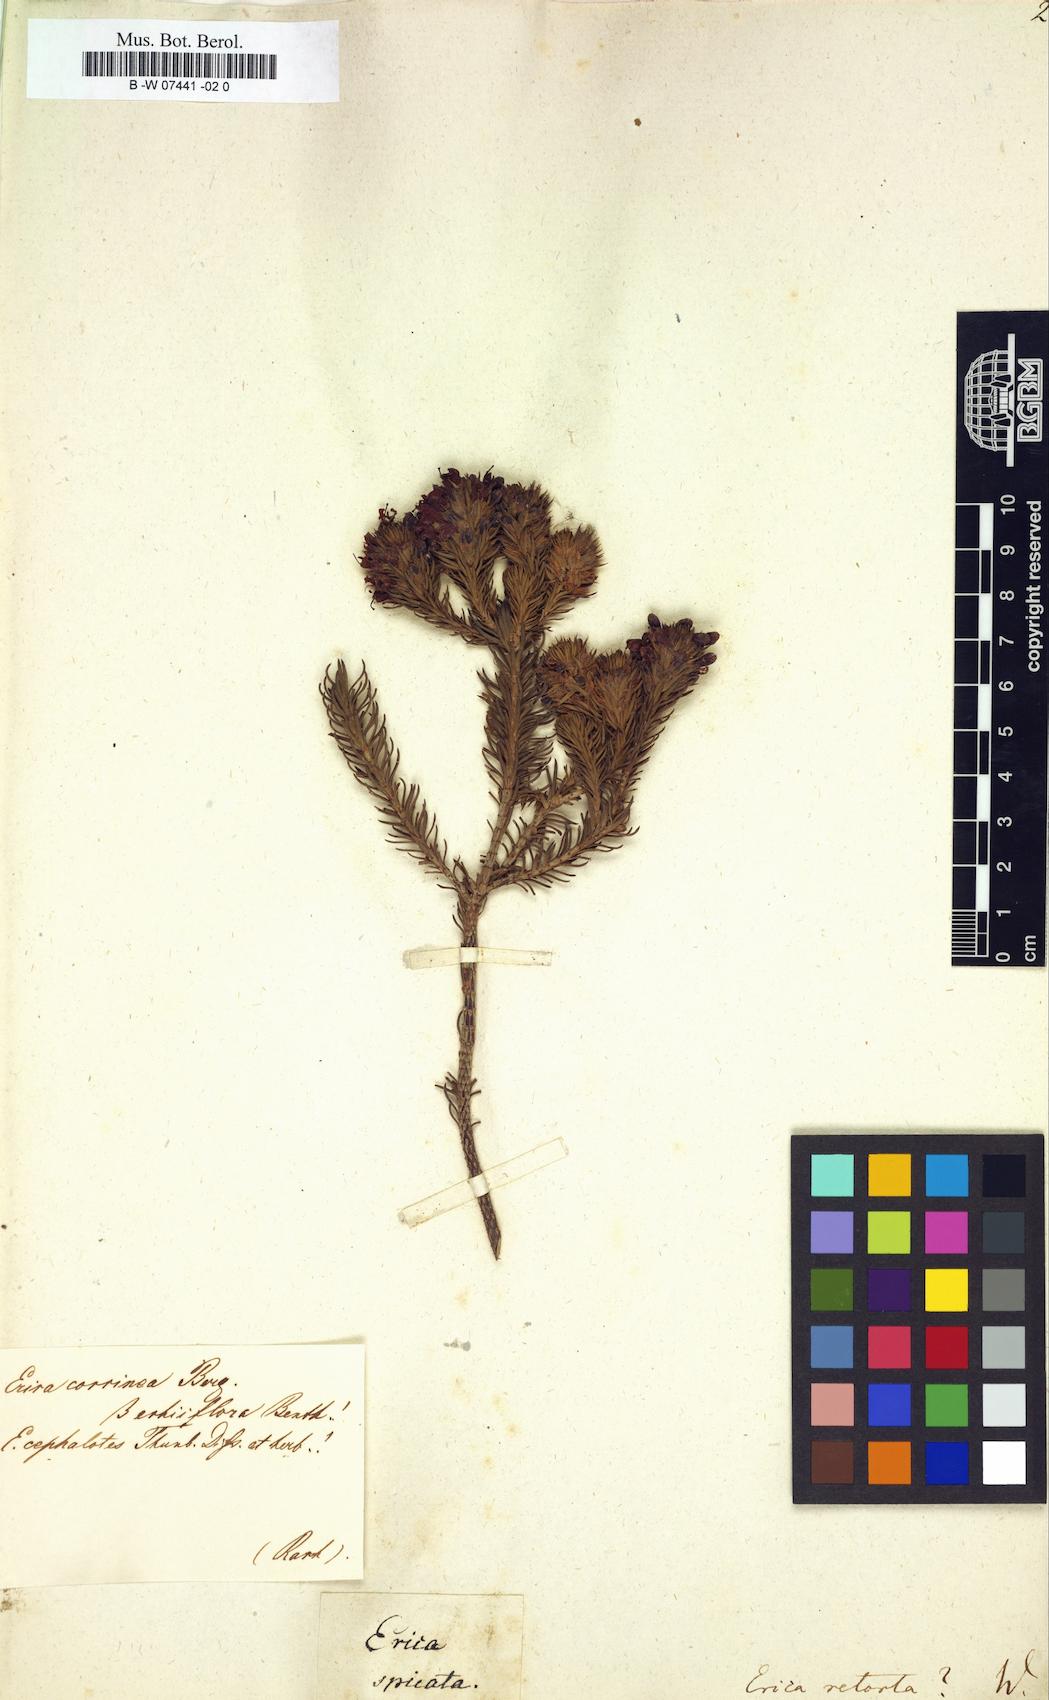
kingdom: Plantae
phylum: Tracheophyta
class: Magnoliopsida
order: Ericales
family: Ericaceae
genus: Erica
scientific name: Erica retorta
